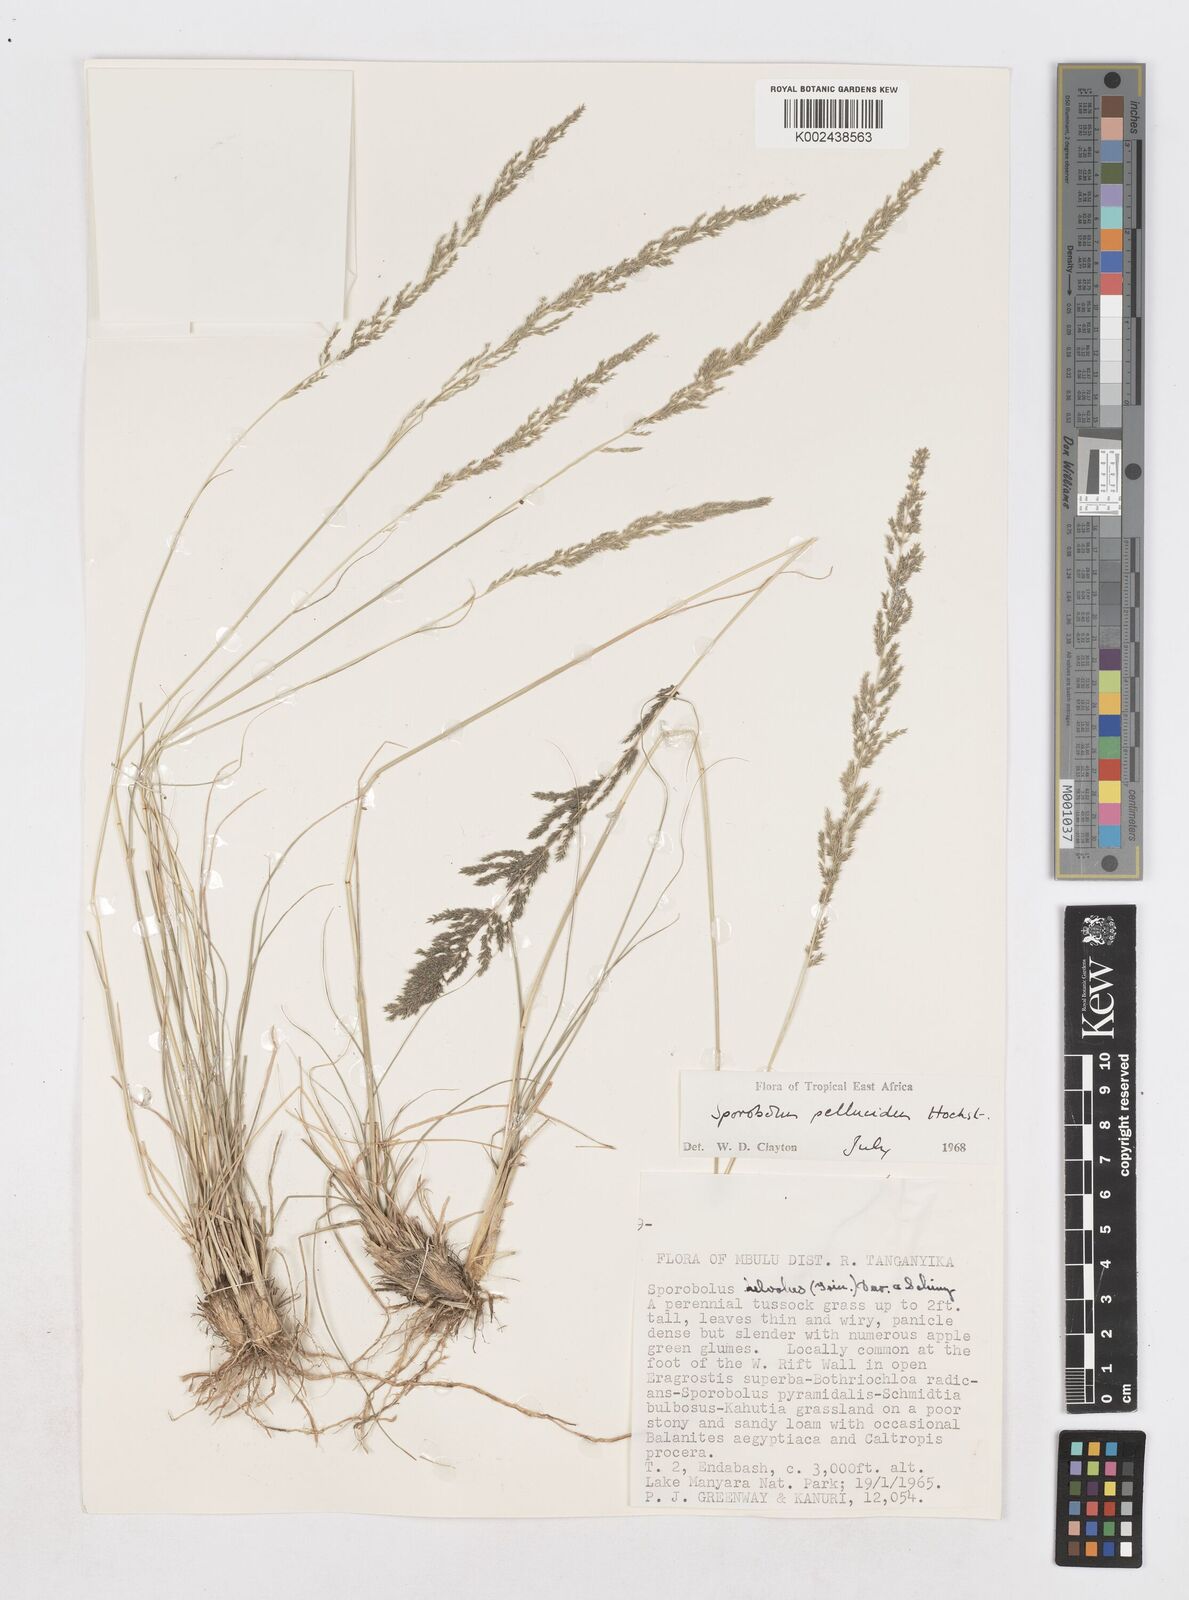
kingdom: Plantae
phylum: Tracheophyta
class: Liliopsida
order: Poales
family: Poaceae
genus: Sporobolus
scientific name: Sporobolus pellucidus
